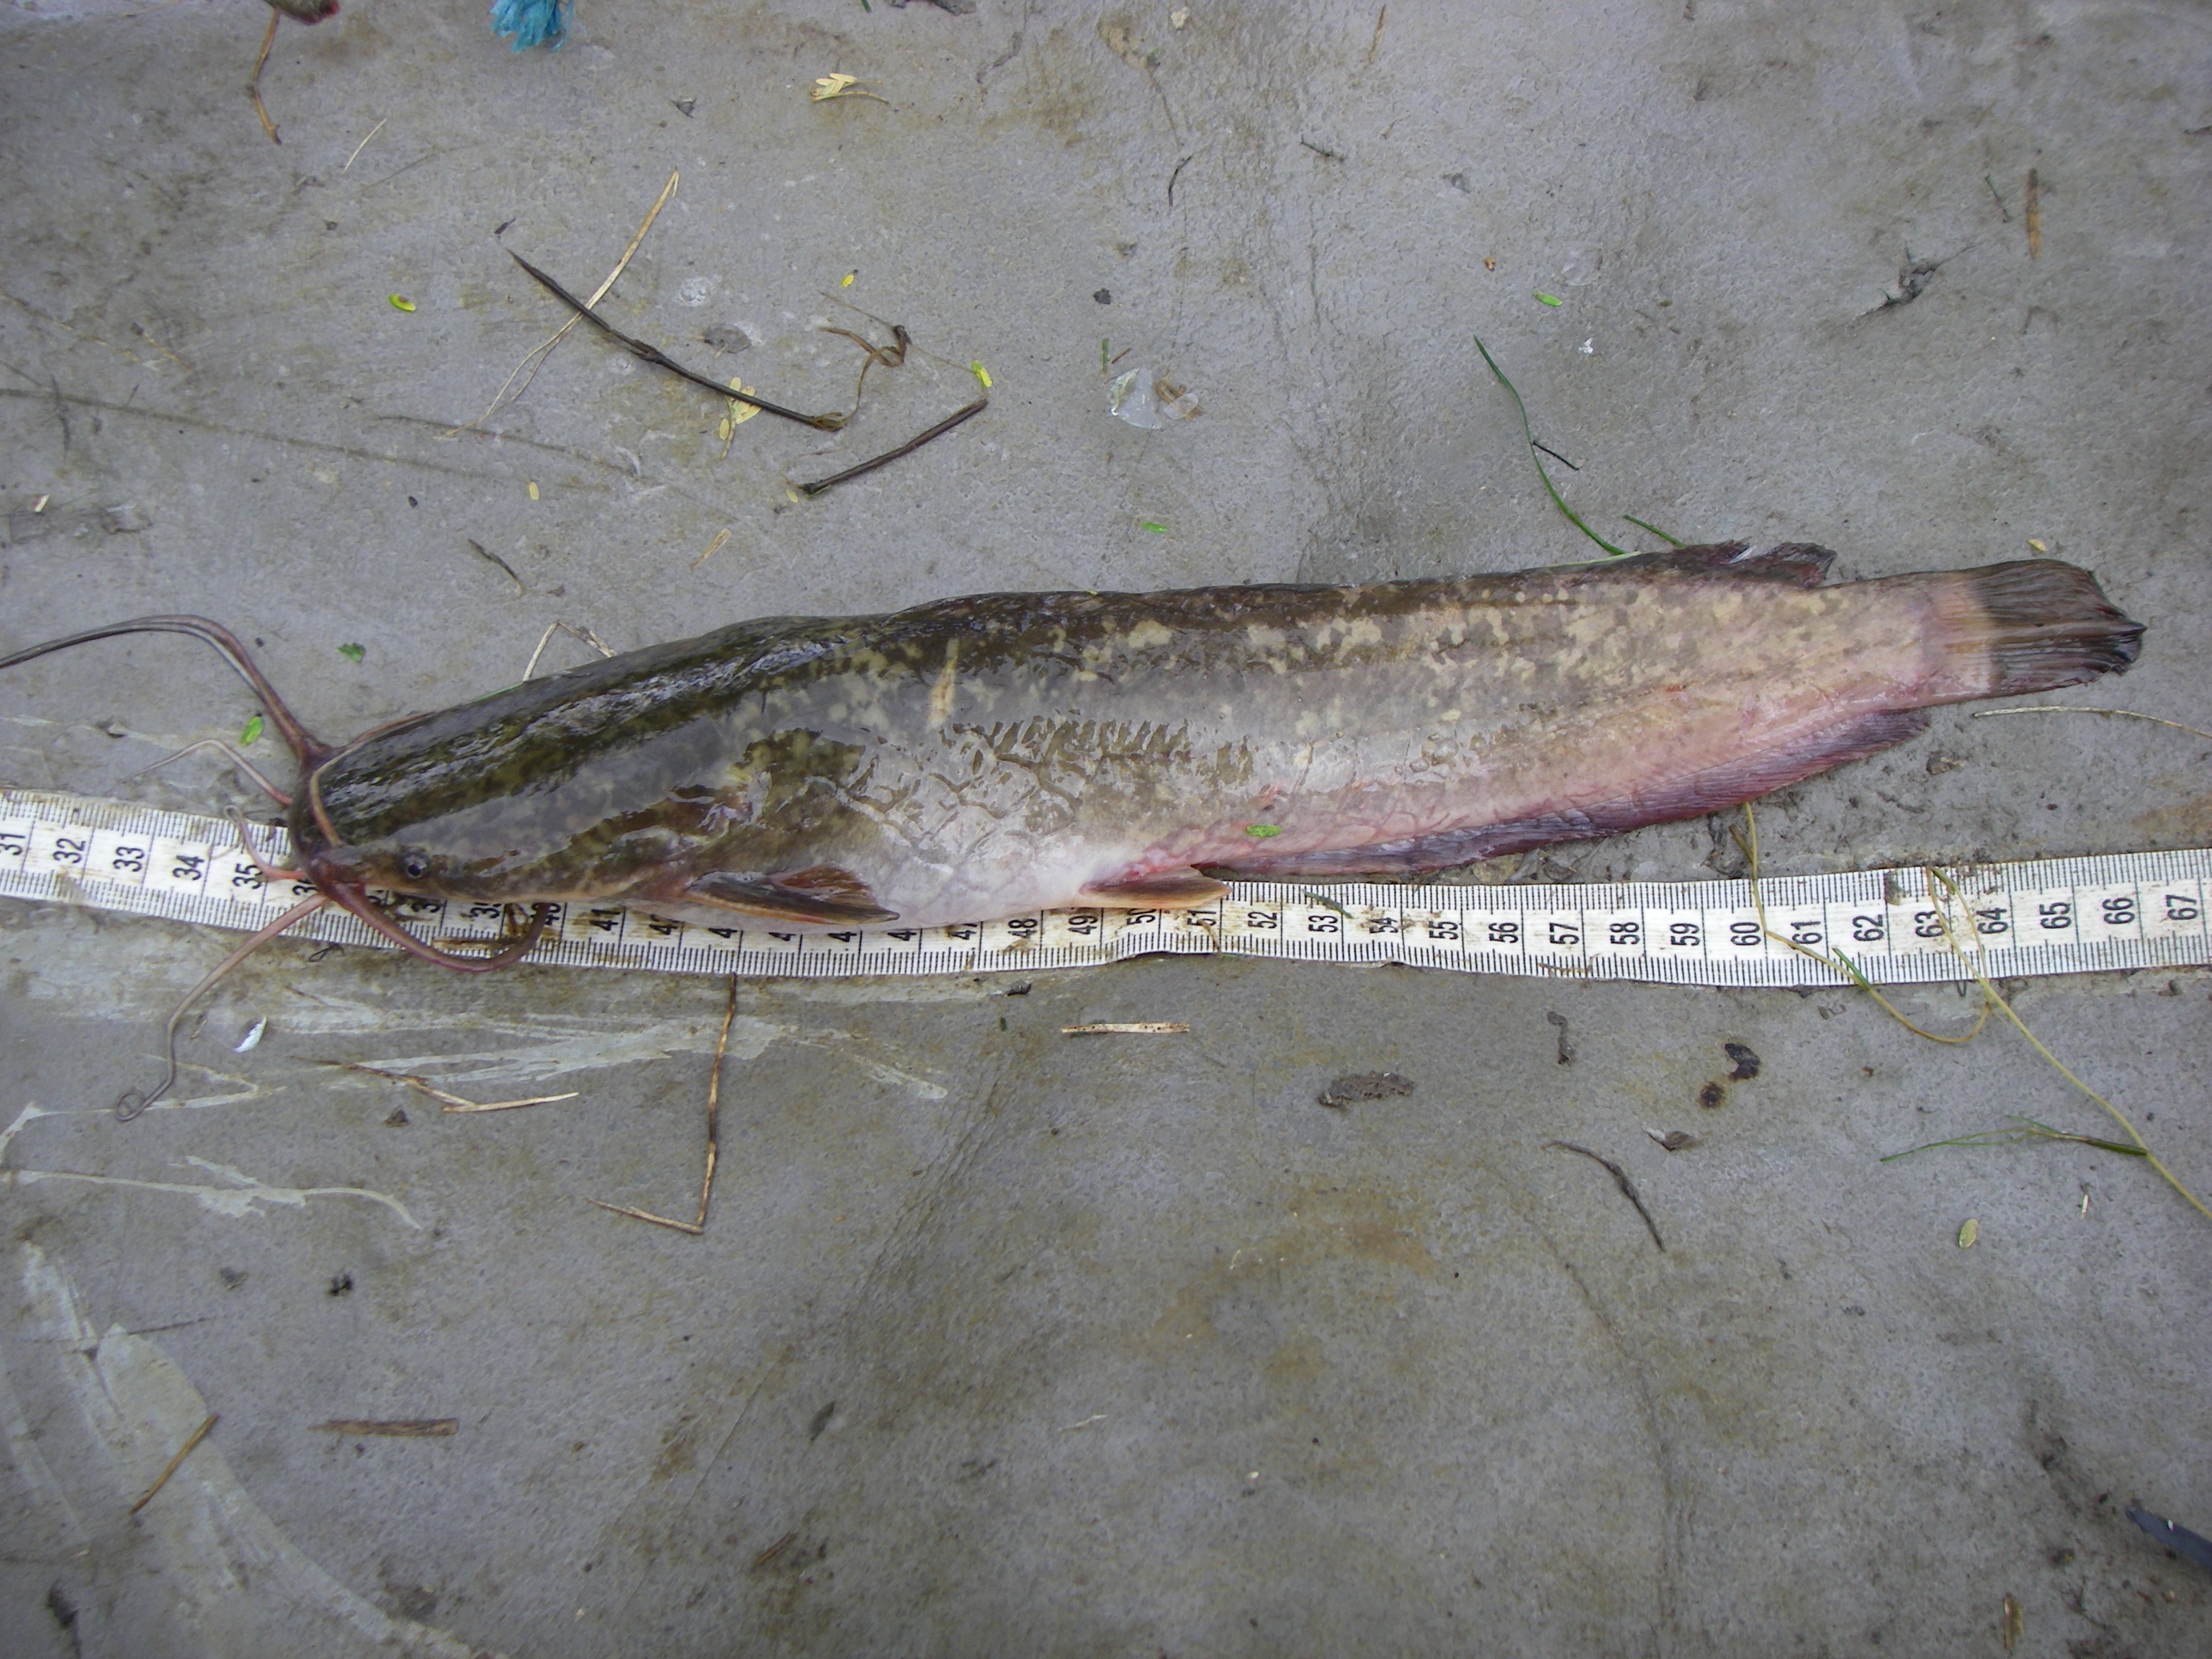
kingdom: Animalia
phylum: Chordata
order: Siluriformes
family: Clariidae
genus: Clarias
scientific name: Clarias gariepinus
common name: African catfish
